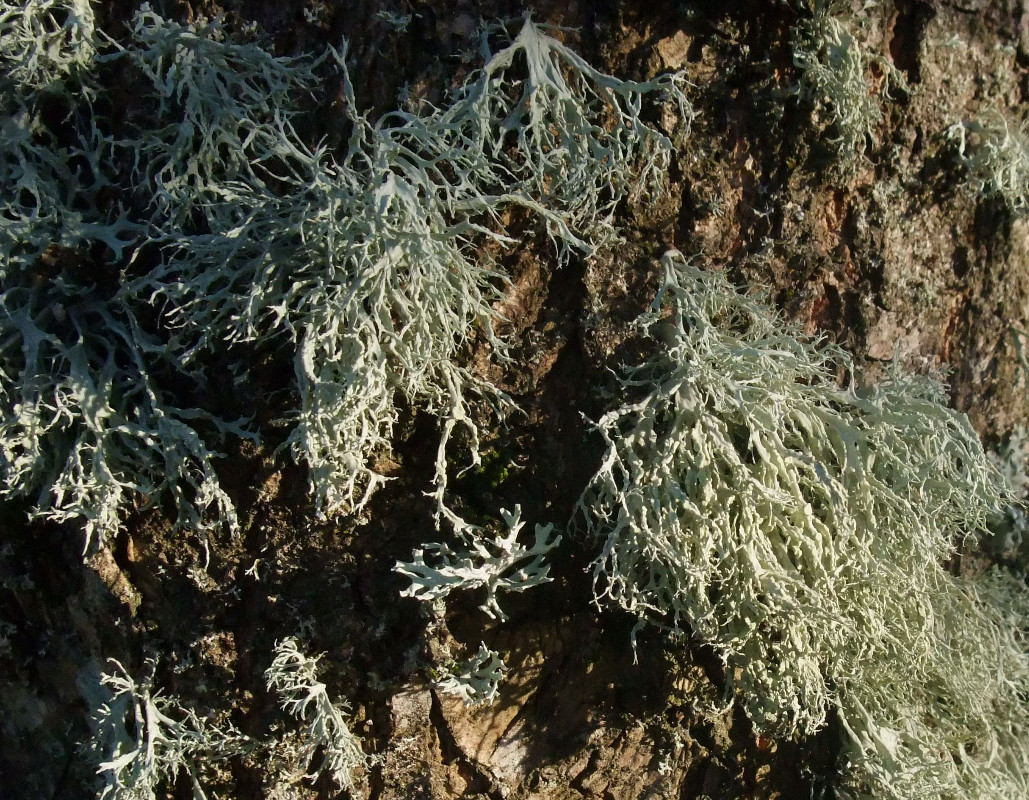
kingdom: Fungi
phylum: Ascomycota
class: Lecanoromycetes
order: Lecanorales
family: Ramalinaceae
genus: Ramalina
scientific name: Ramalina farinacea
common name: melet grenlav
